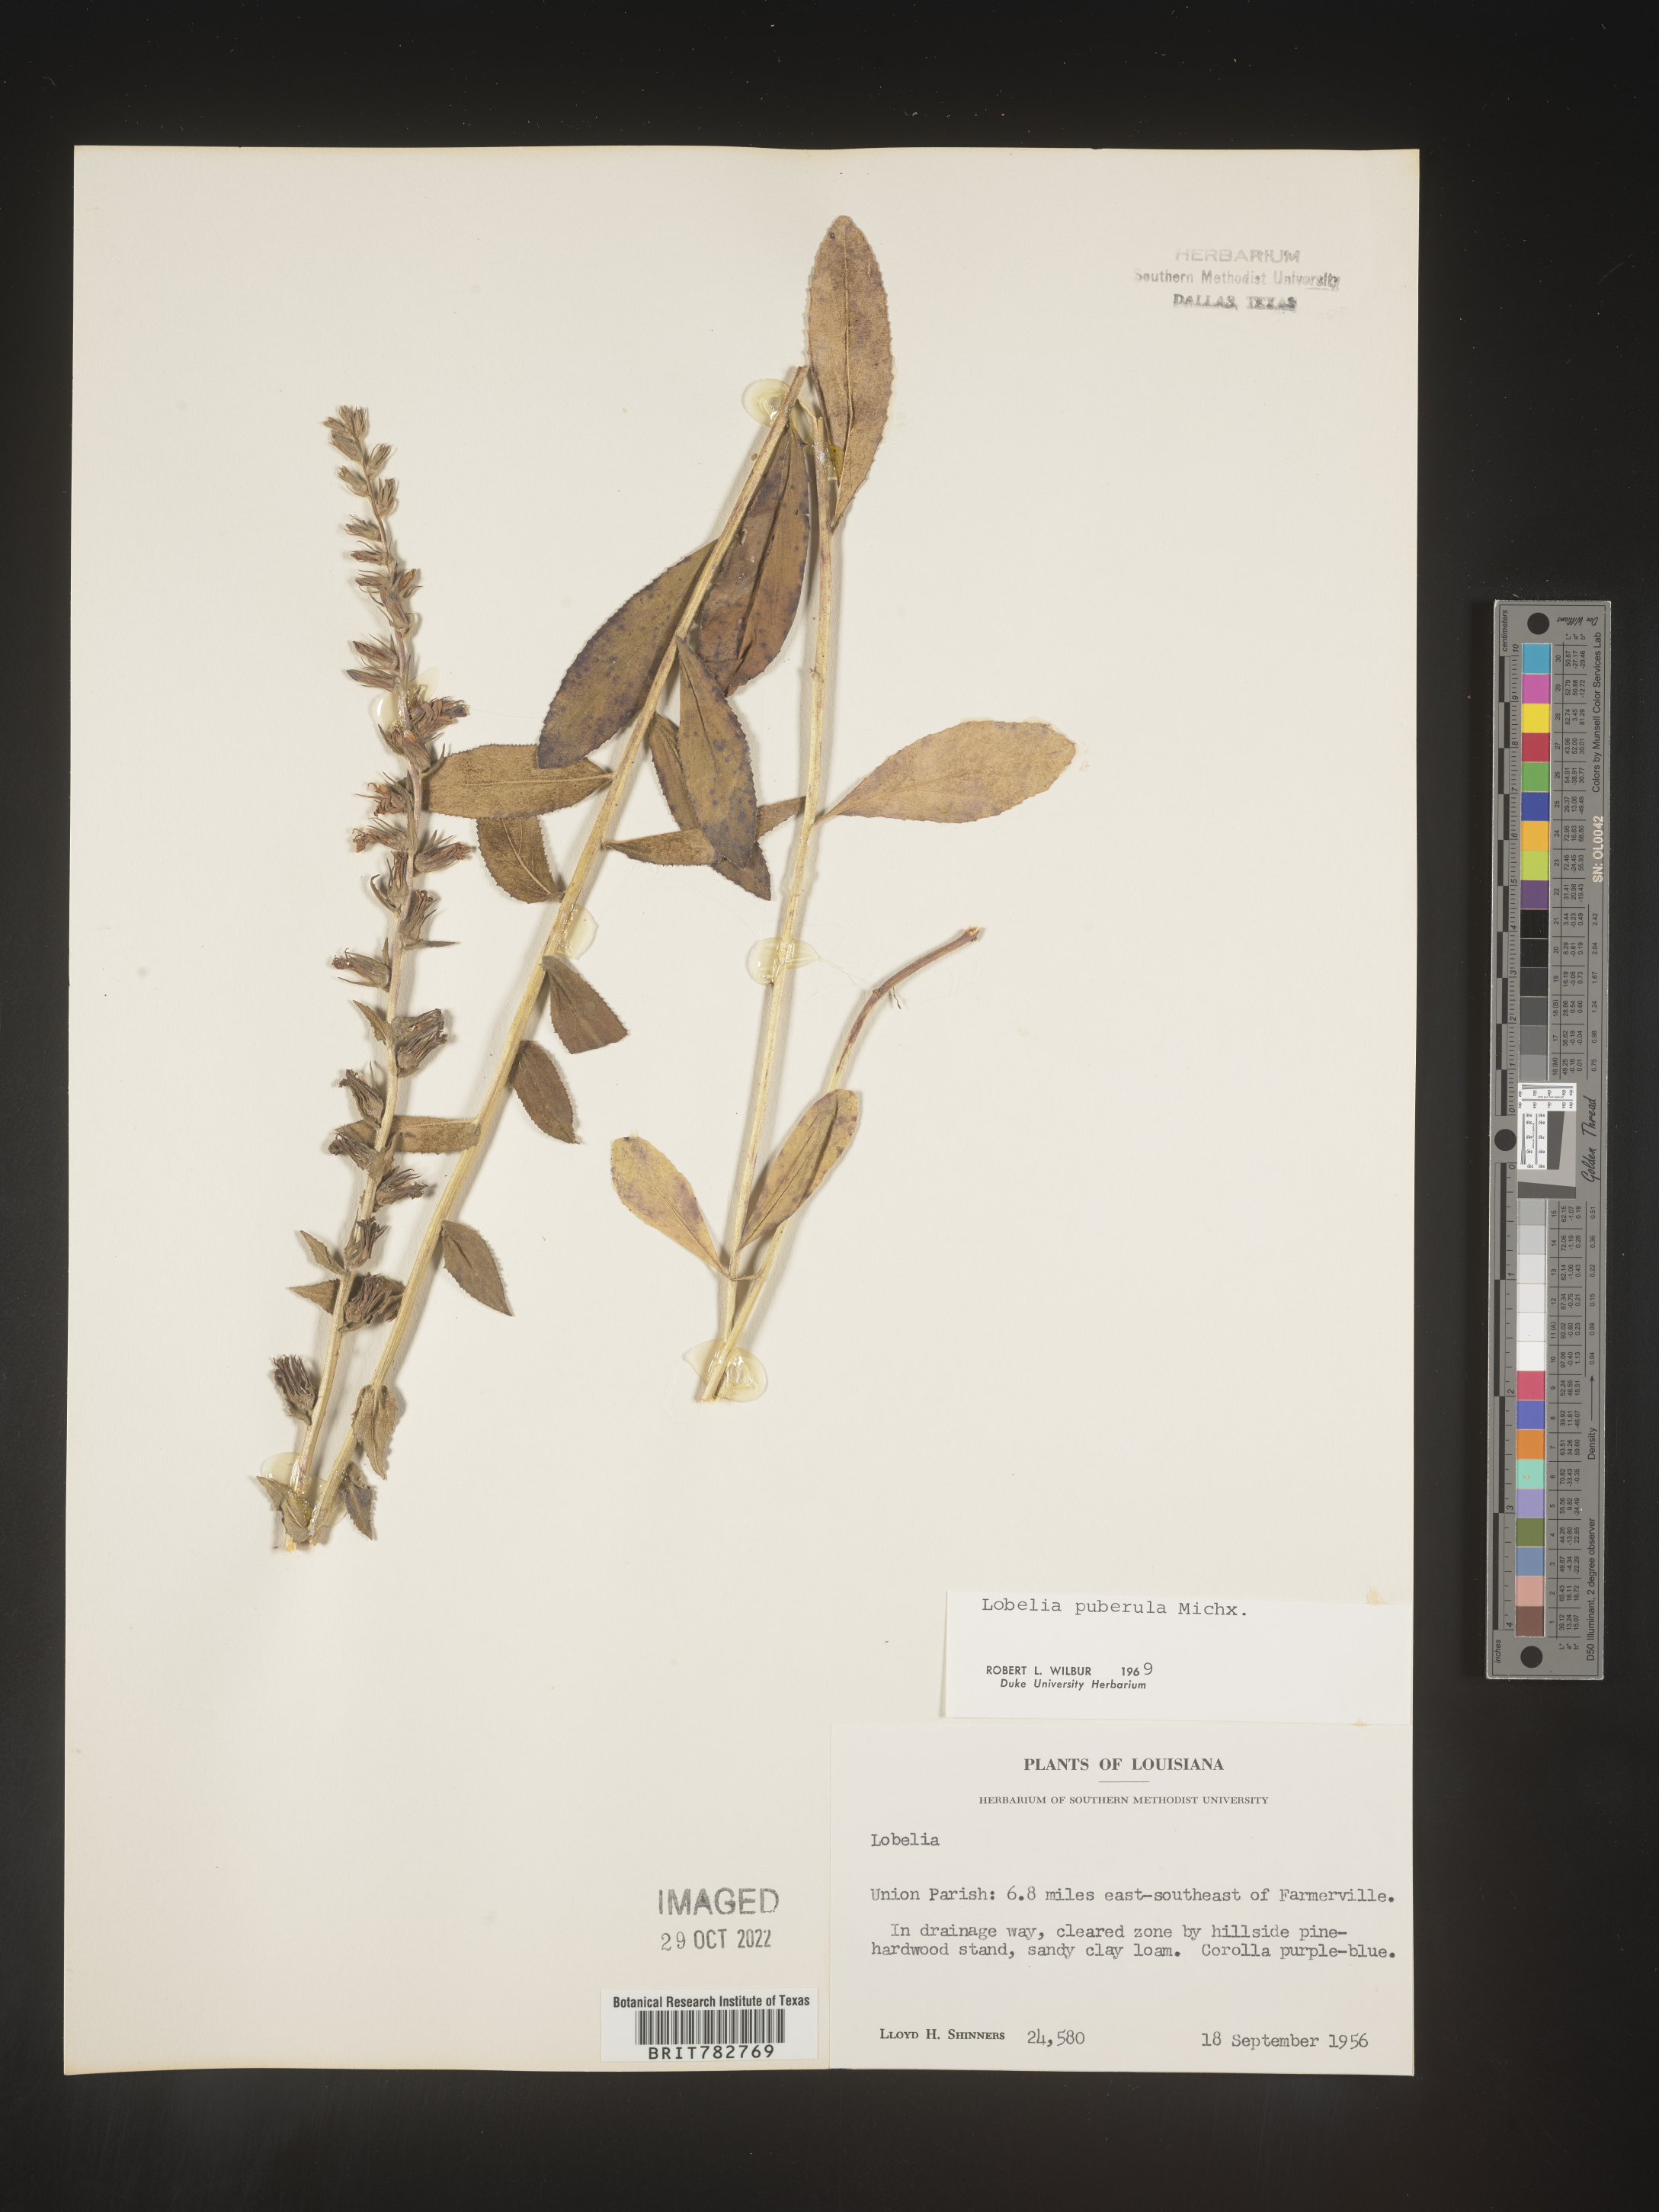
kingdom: Plantae
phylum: Tracheophyta
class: Magnoliopsida
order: Asterales
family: Campanulaceae
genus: Lobelia
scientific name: Lobelia puberula
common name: Purple dewdrop
